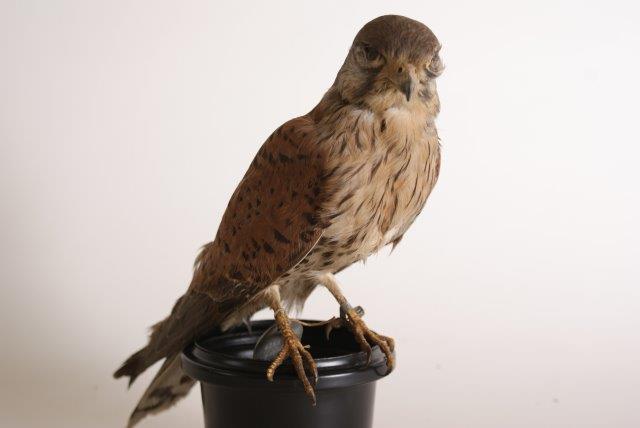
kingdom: Animalia
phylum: Chordata
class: Aves
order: Falconiformes
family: Falconidae
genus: Falco
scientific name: Falco tinnunculus
